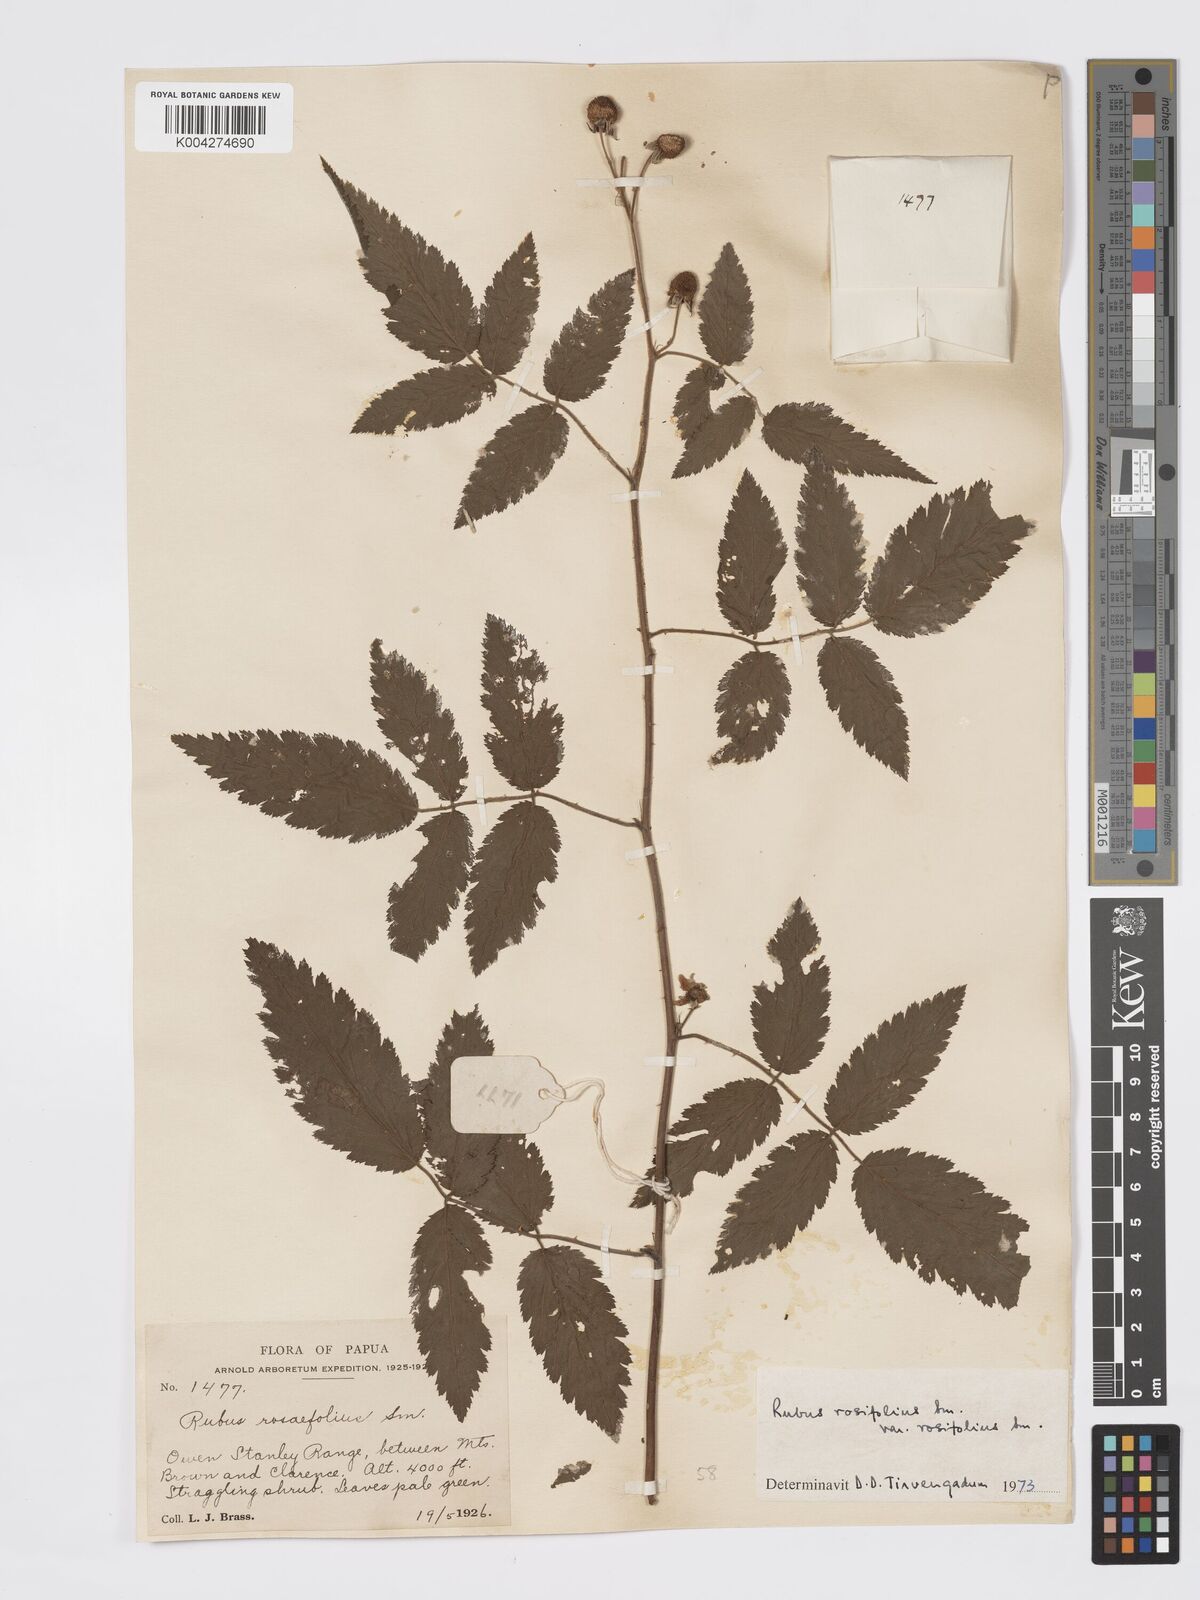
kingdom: Plantae
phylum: Tracheophyta
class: Magnoliopsida
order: Rosales
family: Rosaceae
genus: Rubus
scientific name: Rubus
